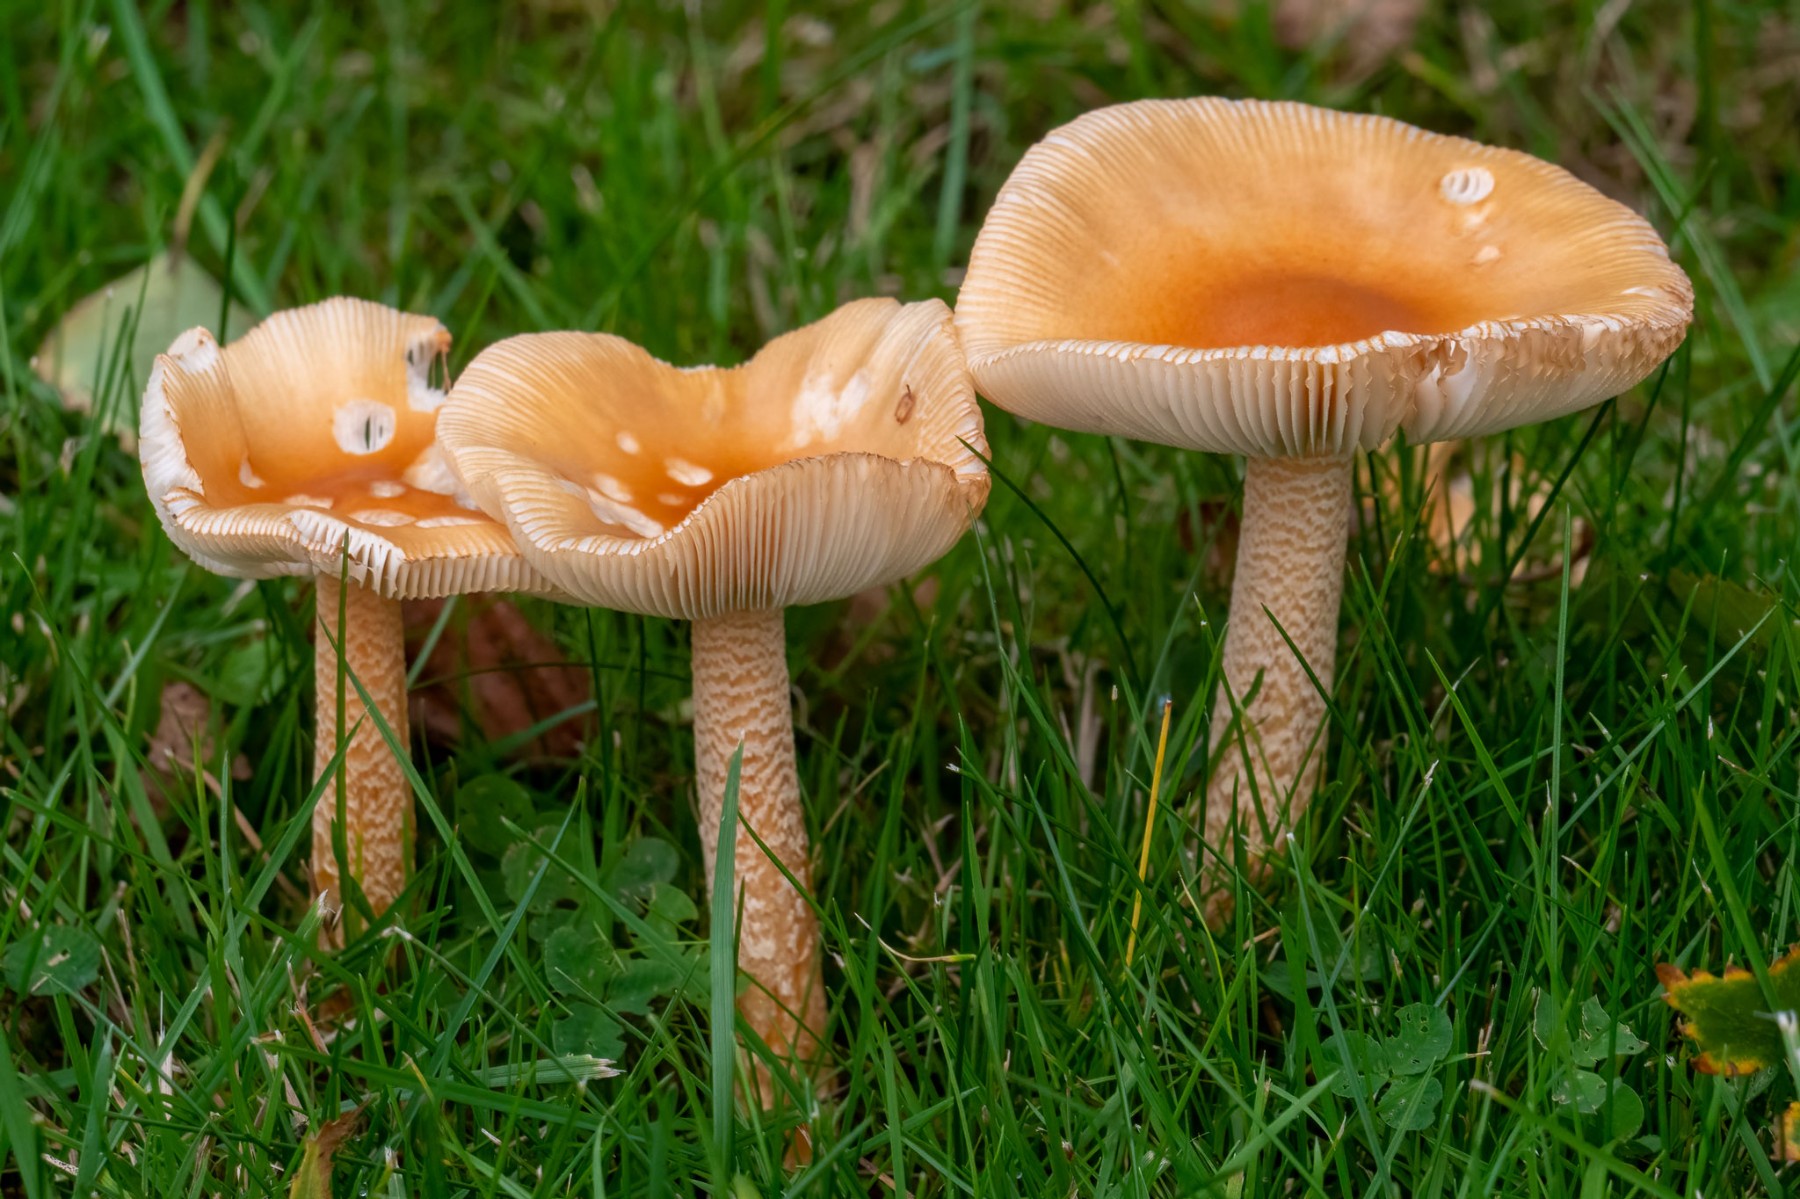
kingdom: Fungi
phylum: Basidiomycota
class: Agaricomycetes
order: Agaricales
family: Amanitaceae
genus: Amanita
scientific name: Amanita crocea
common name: gylden kam-fluesvamp
